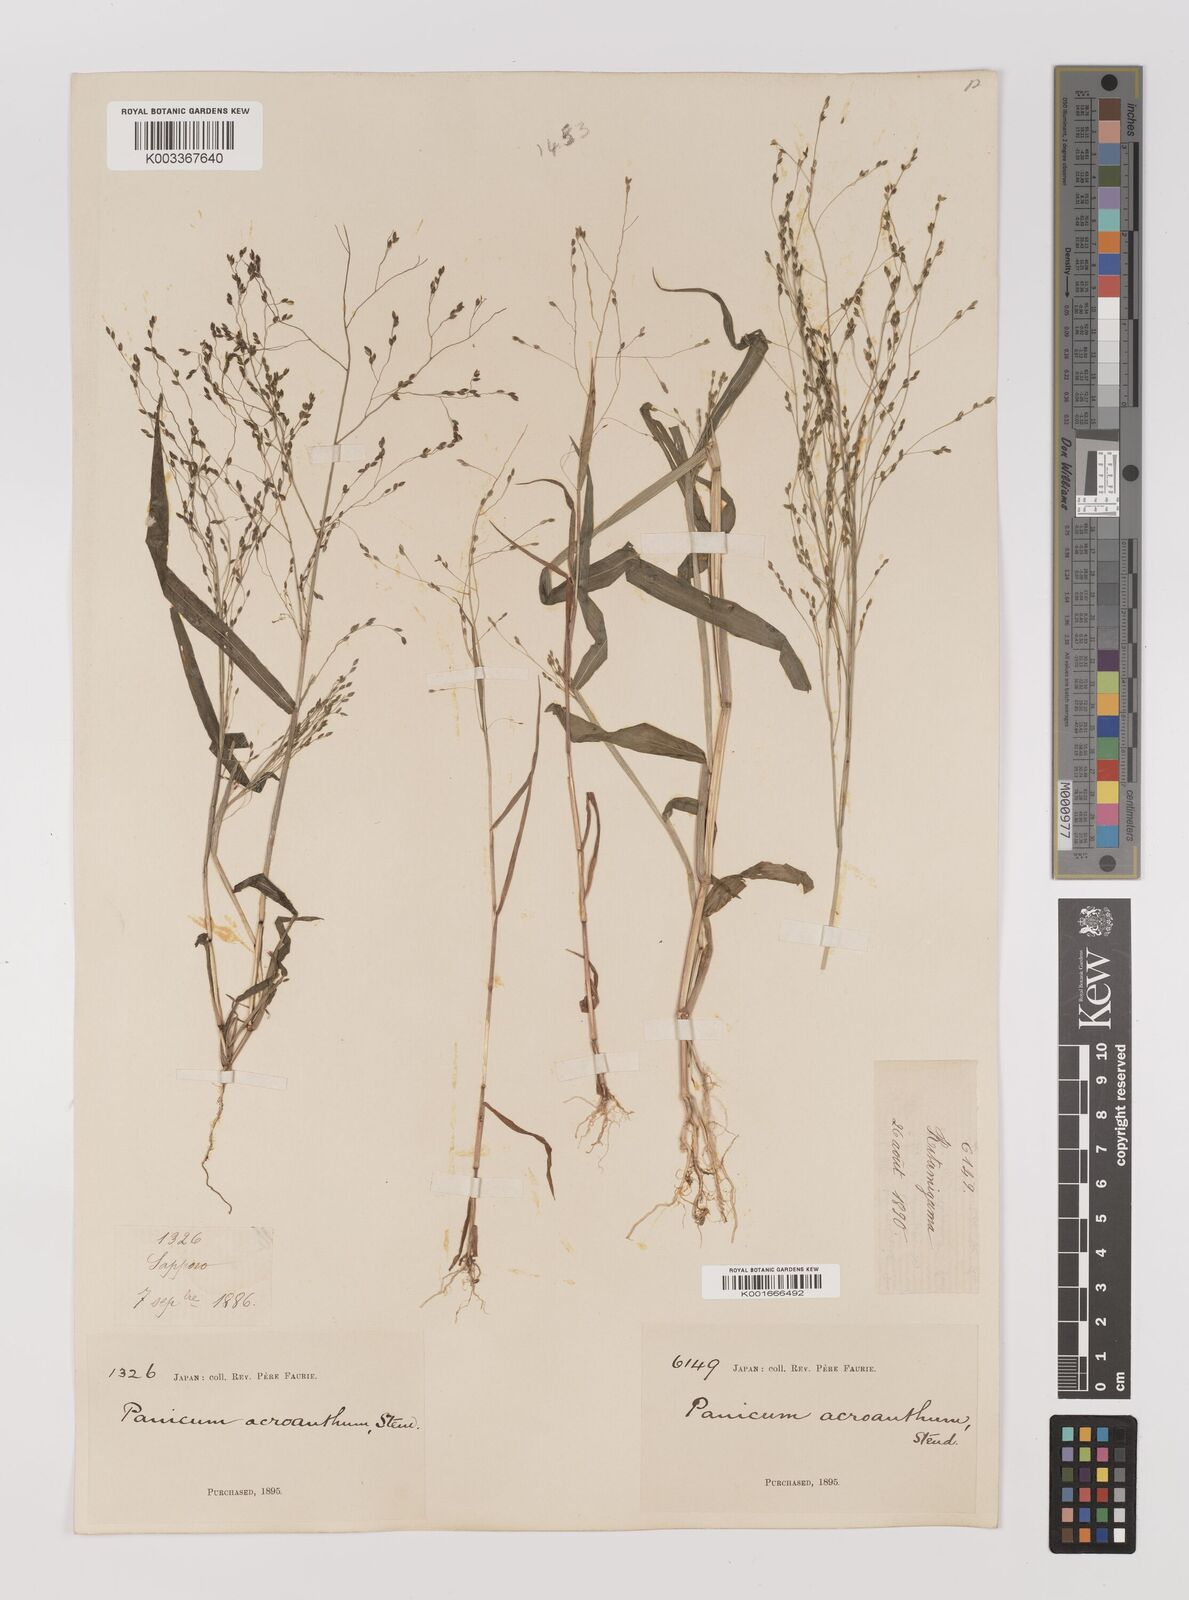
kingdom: Plantae
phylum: Tracheophyta
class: Liliopsida
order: Poales
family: Poaceae
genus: Panicum
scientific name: Panicum bisulcatum
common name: Japanese panicgrass
